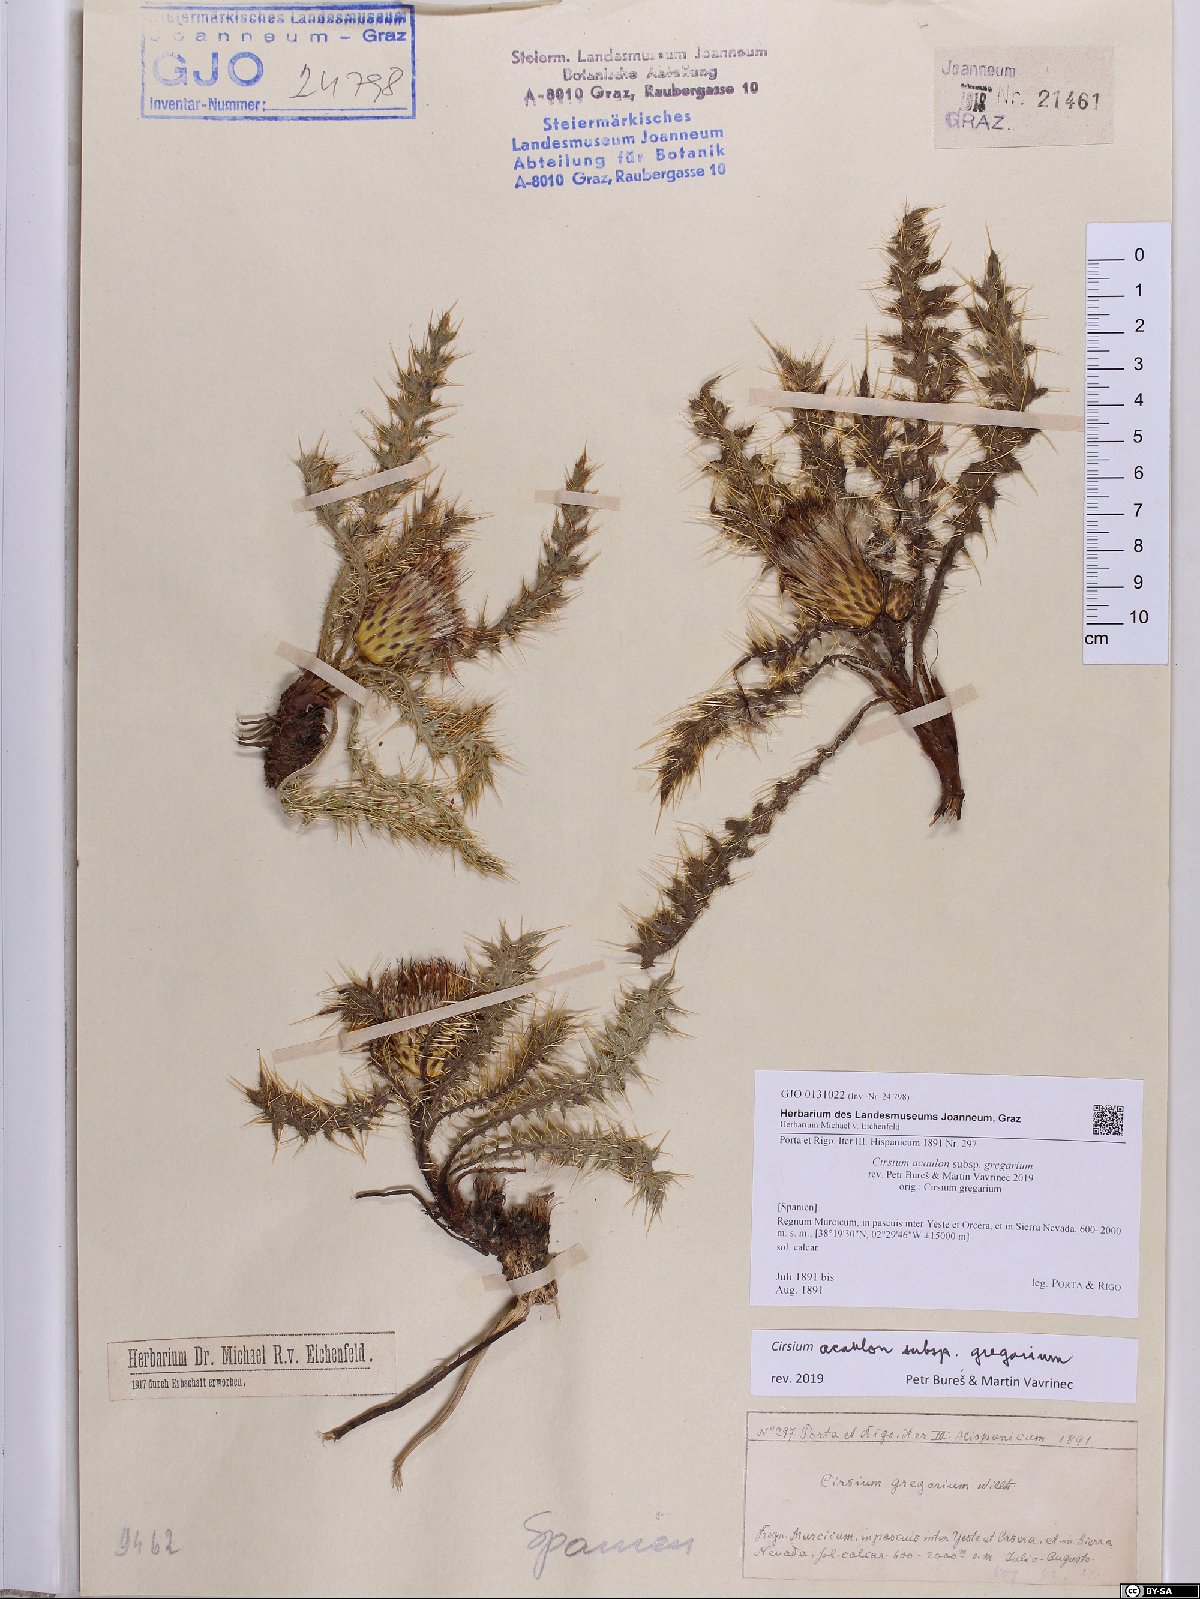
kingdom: Plantae
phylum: Tracheophyta
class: Magnoliopsida
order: Asterales
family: Asteraceae
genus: Cirsium
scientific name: Cirsium acaule
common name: Dwarf thistle
